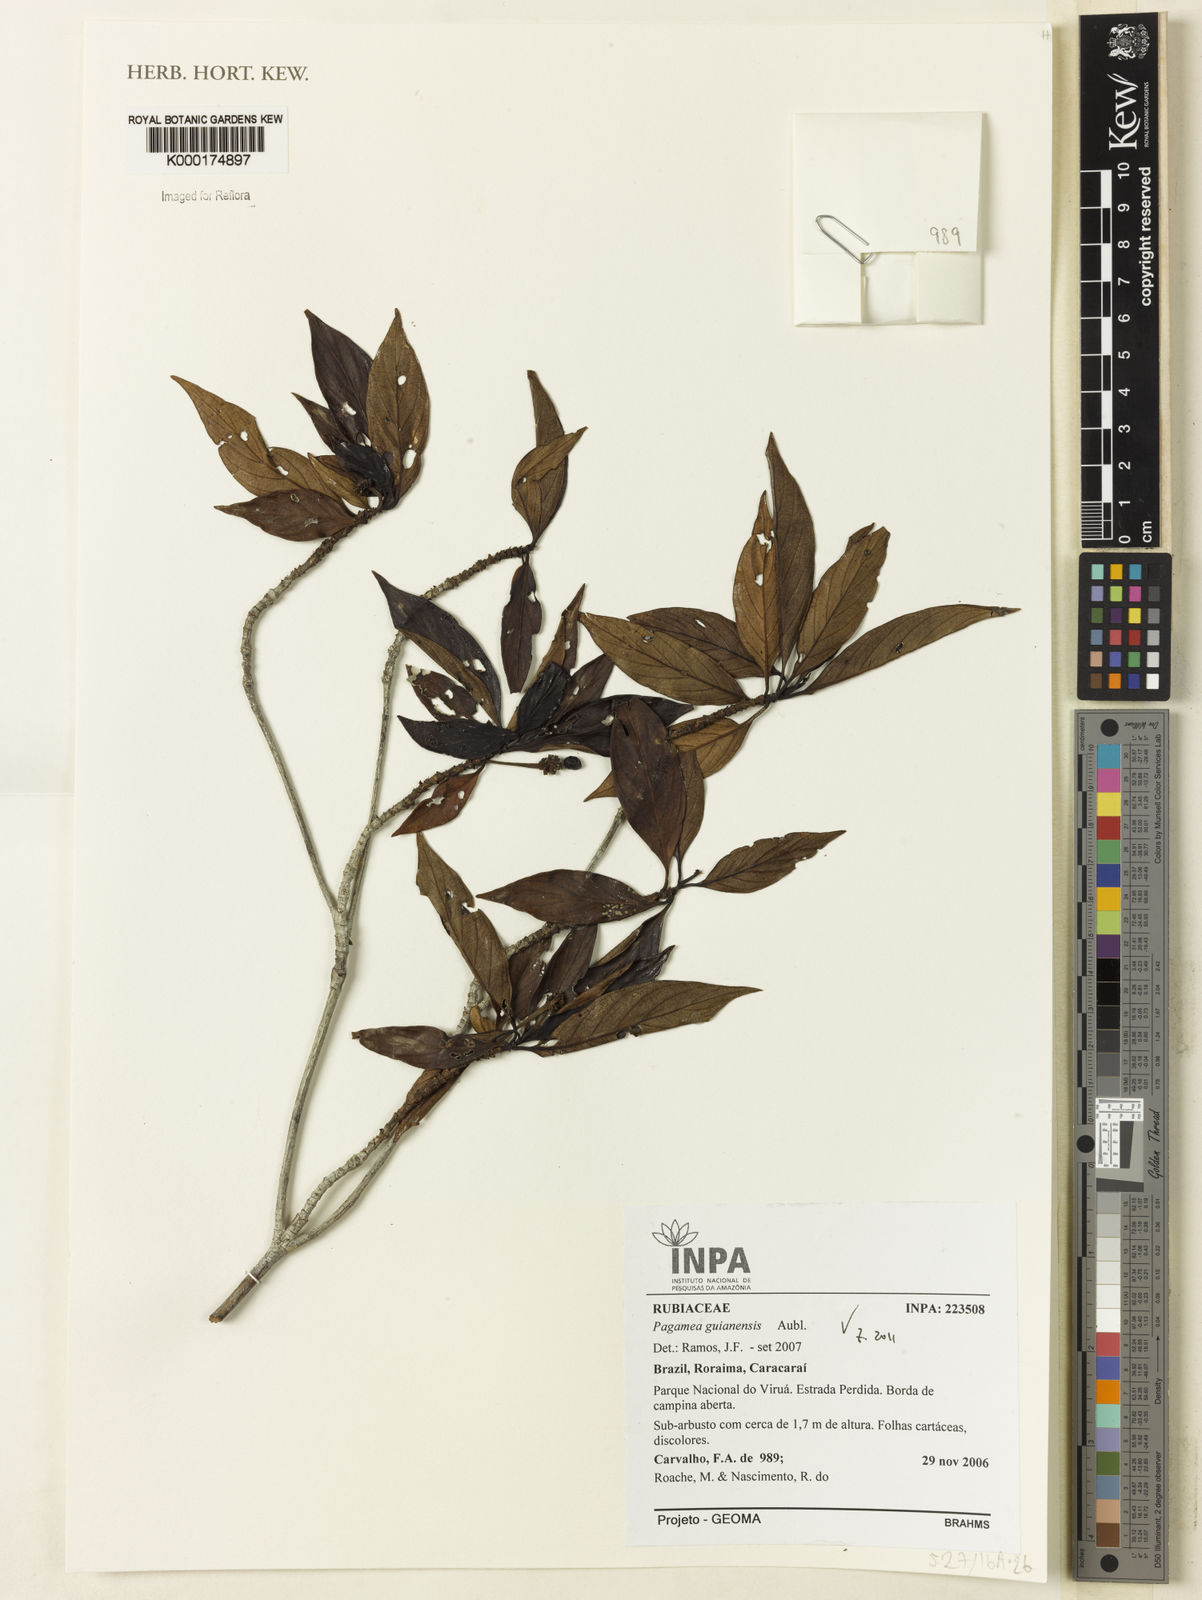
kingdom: Plantae
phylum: Tracheophyta
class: Magnoliopsida
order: Gentianales
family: Rubiaceae
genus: Pagamea
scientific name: Pagamea guianensis
